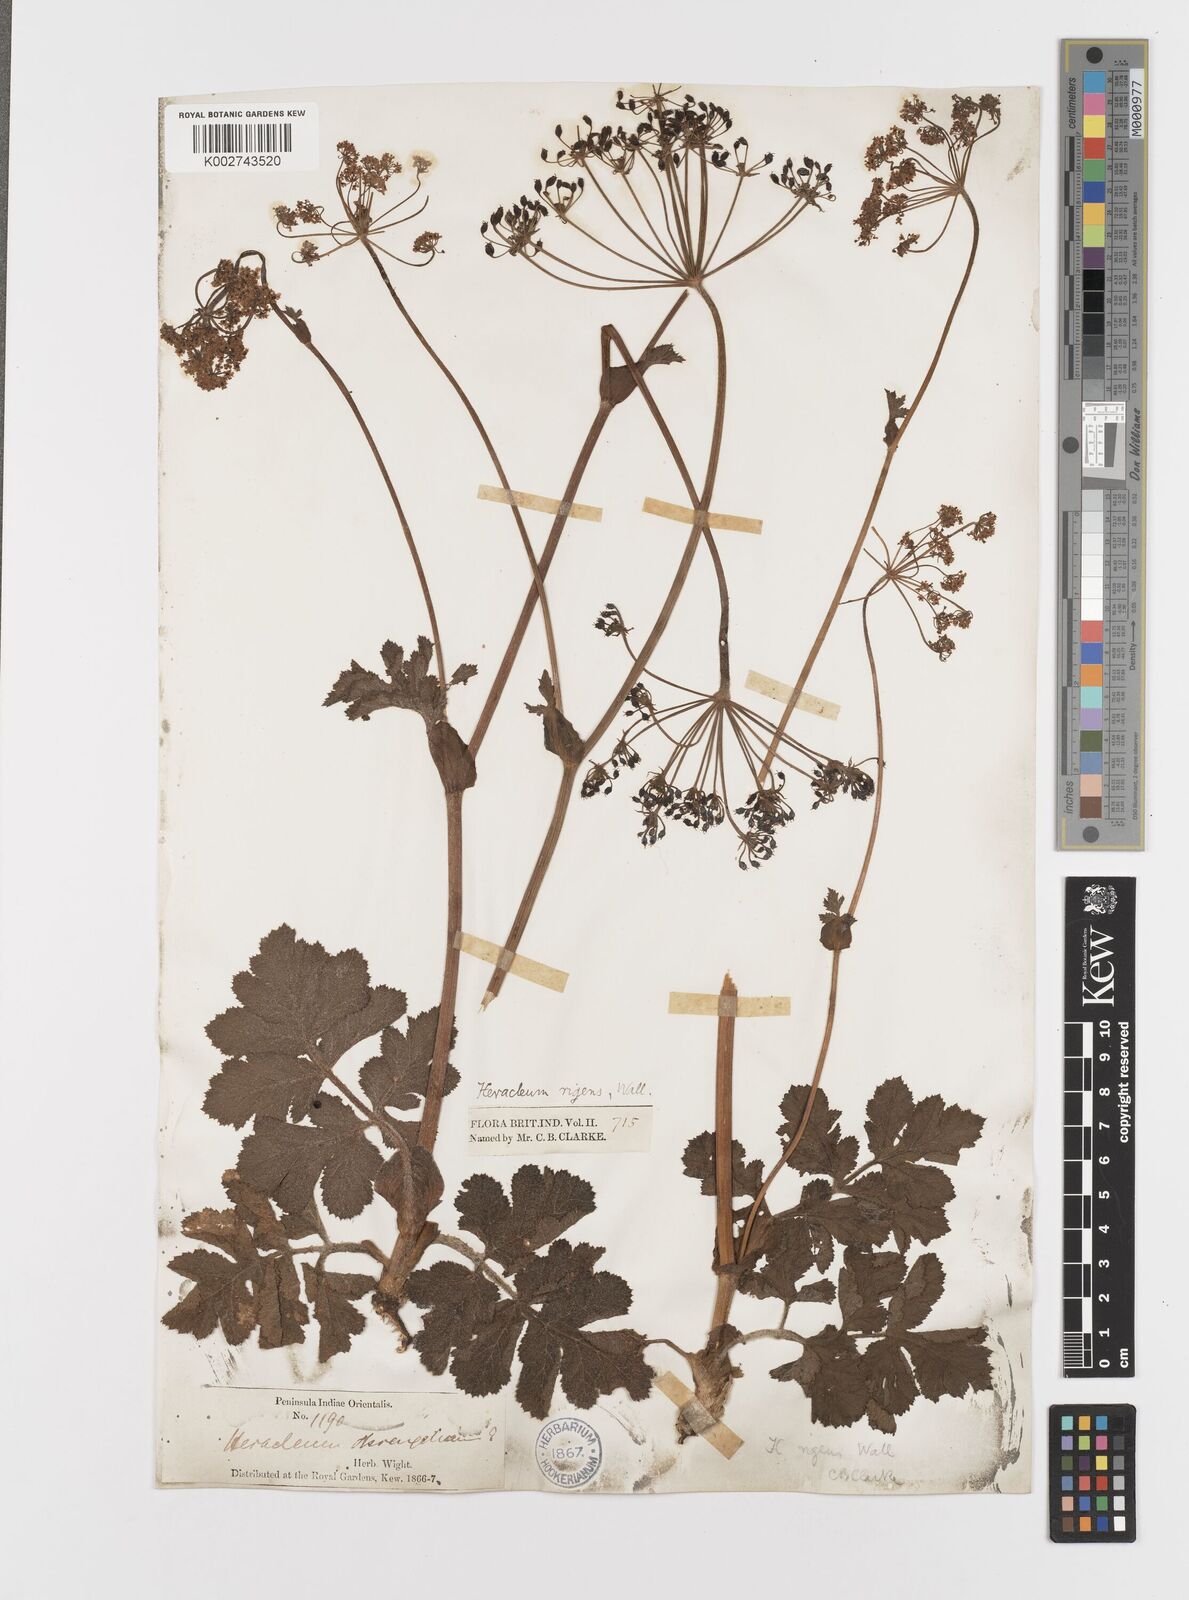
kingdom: Plantae
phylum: Tracheophyta
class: Magnoliopsida
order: Apiales
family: Apiaceae
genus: Tetrataenium
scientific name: Tetrataenium rigens
